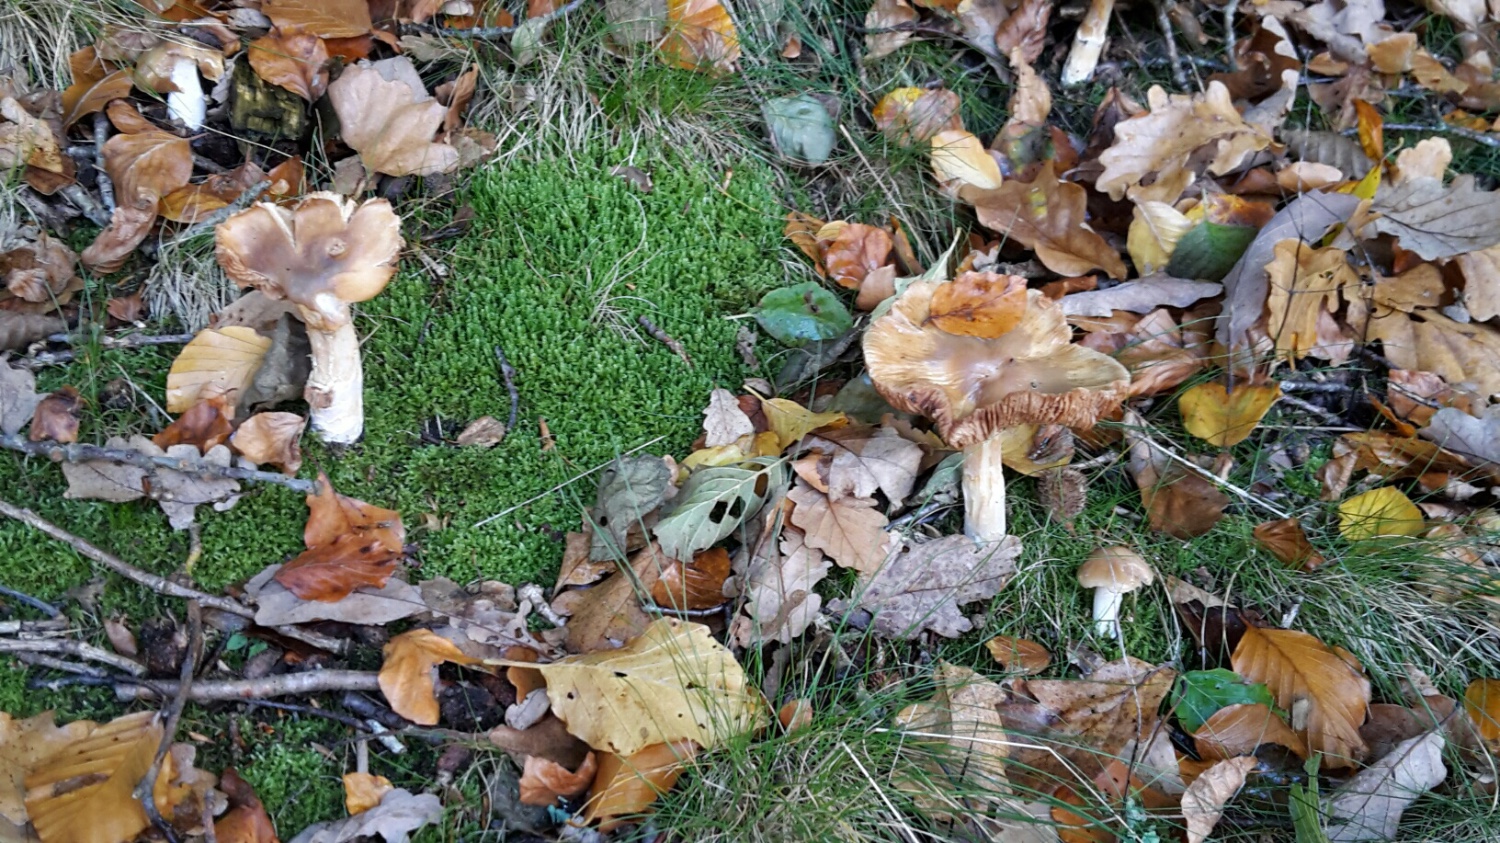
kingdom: Fungi
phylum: Basidiomycota
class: Agaricomycetes
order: Agaricales
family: Cortinariaceae
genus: Cortinarius
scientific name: Cortinarius elatior
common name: høj slørhat
